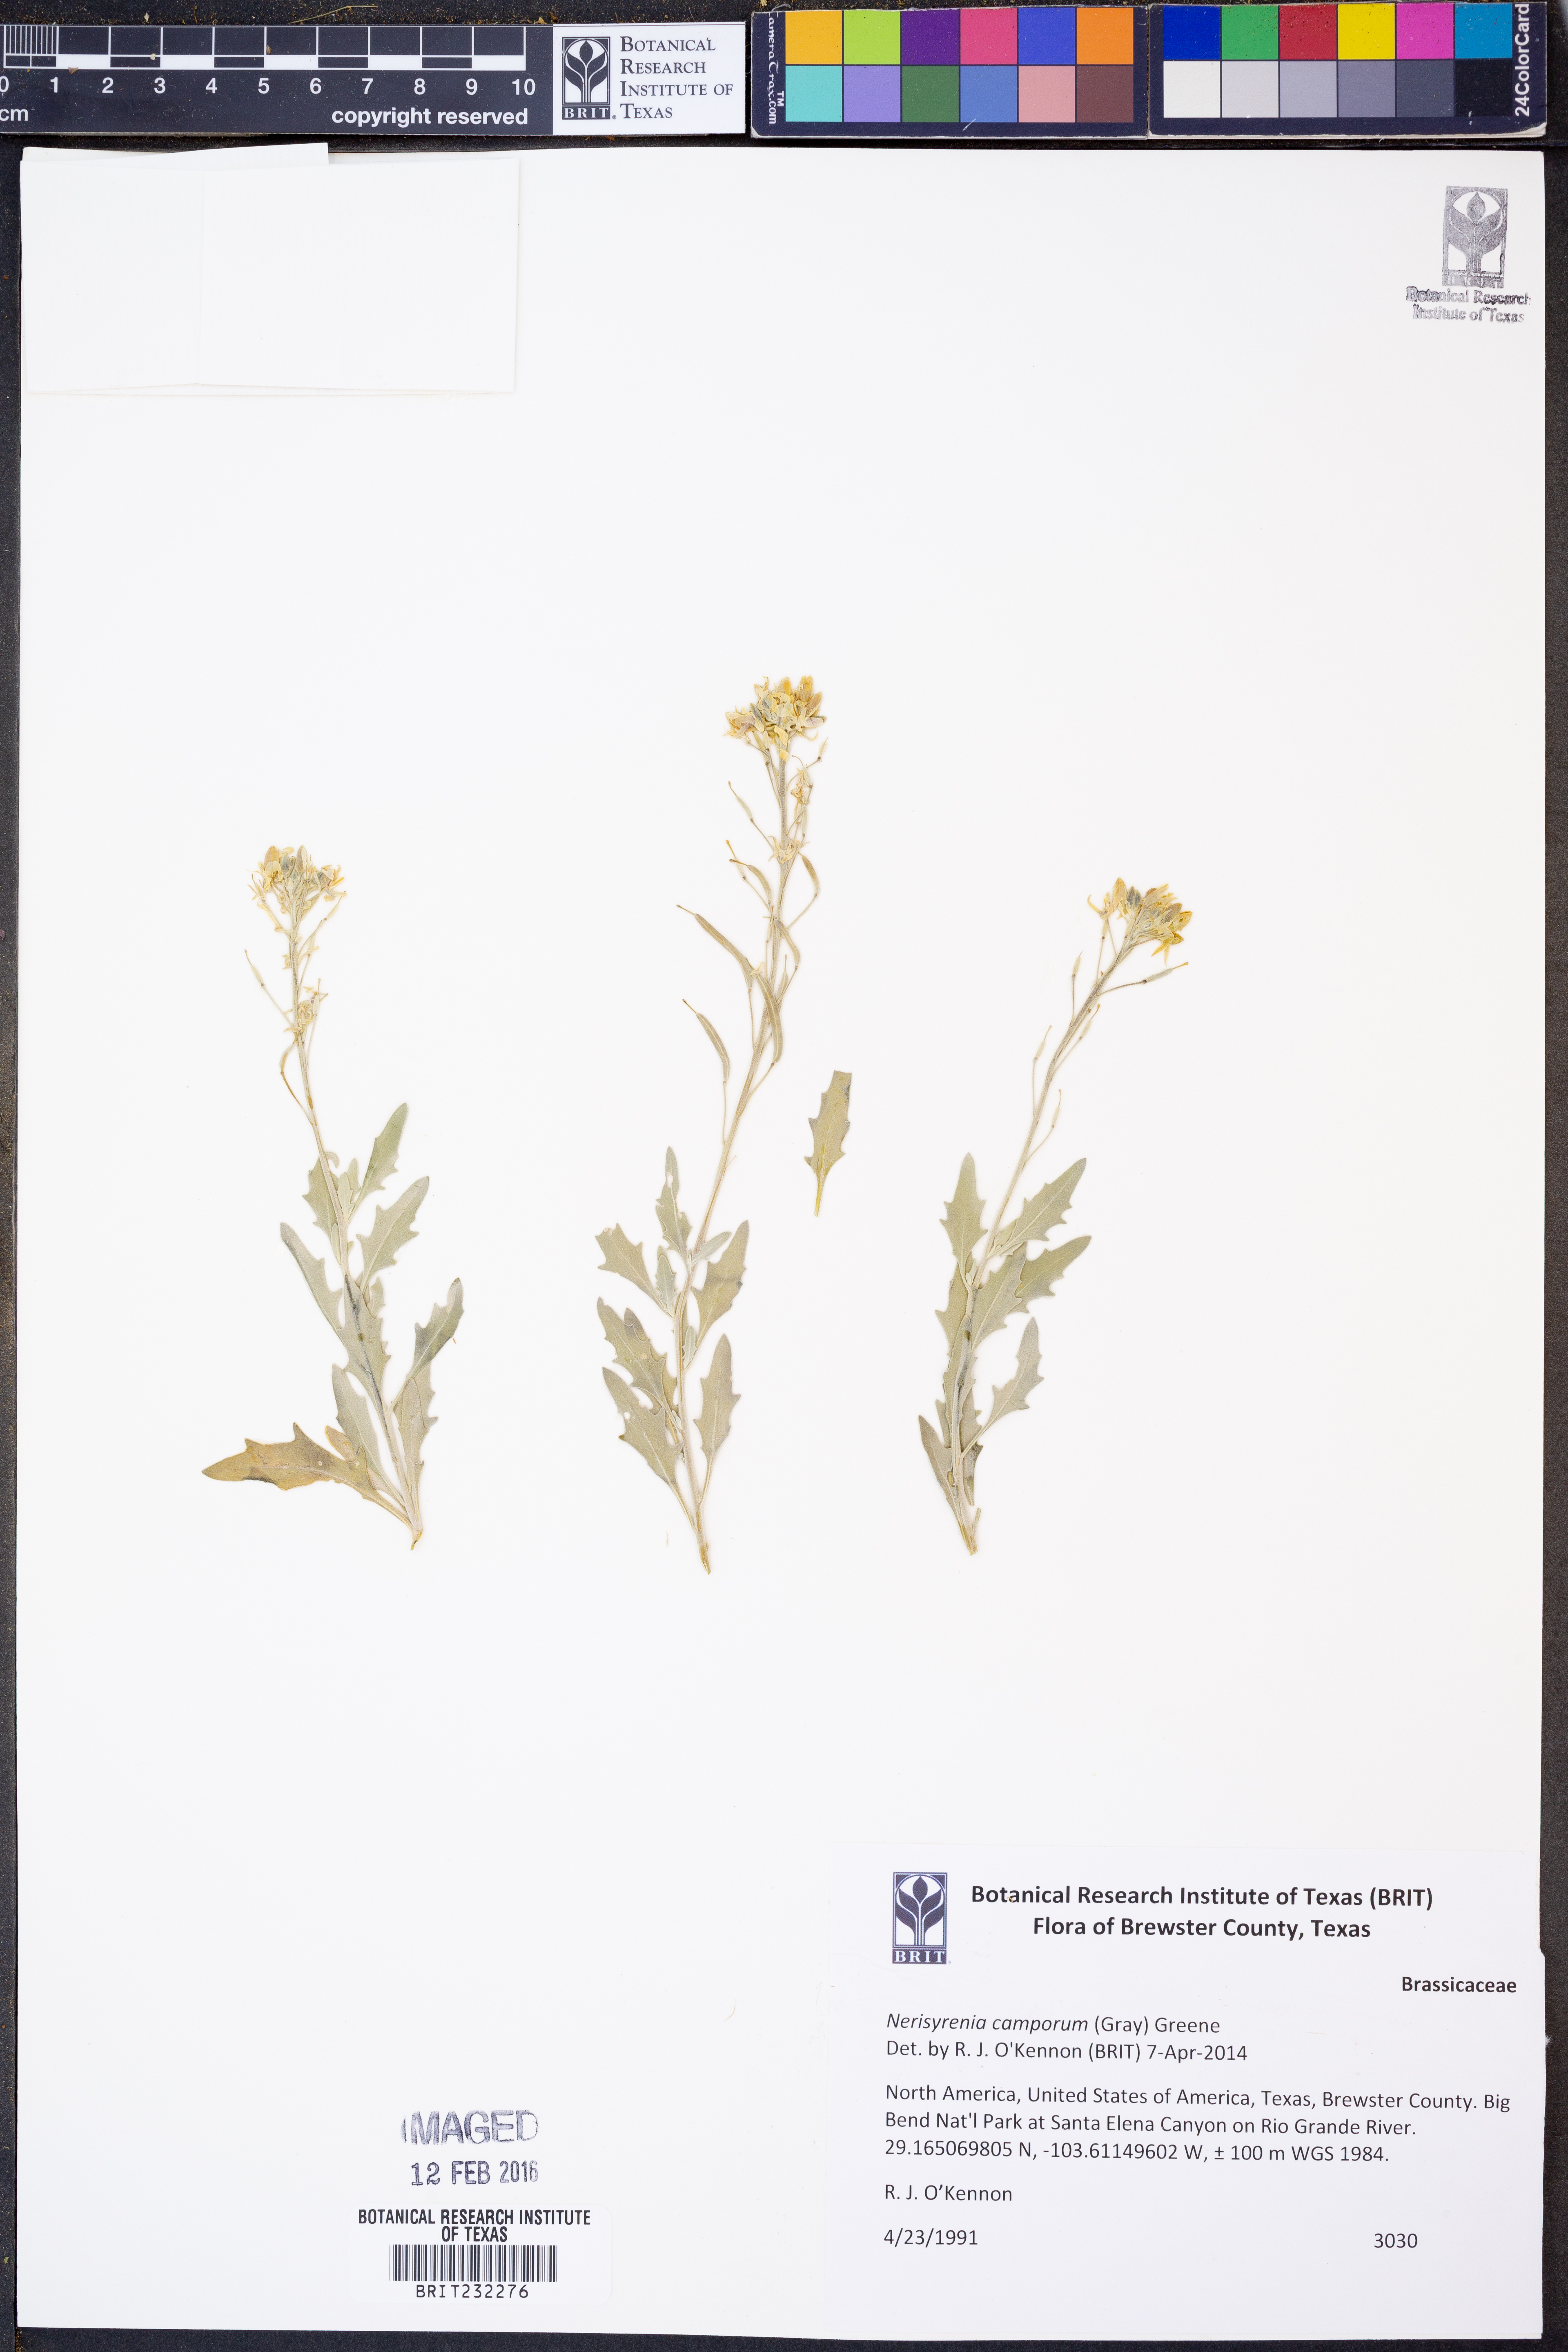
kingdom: Plantae
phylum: Tracheophyta
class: Magnoliopsida
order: Brassicales
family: Brassicaceae
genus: Nerisyrenia
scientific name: Nerisyrenia camporum
